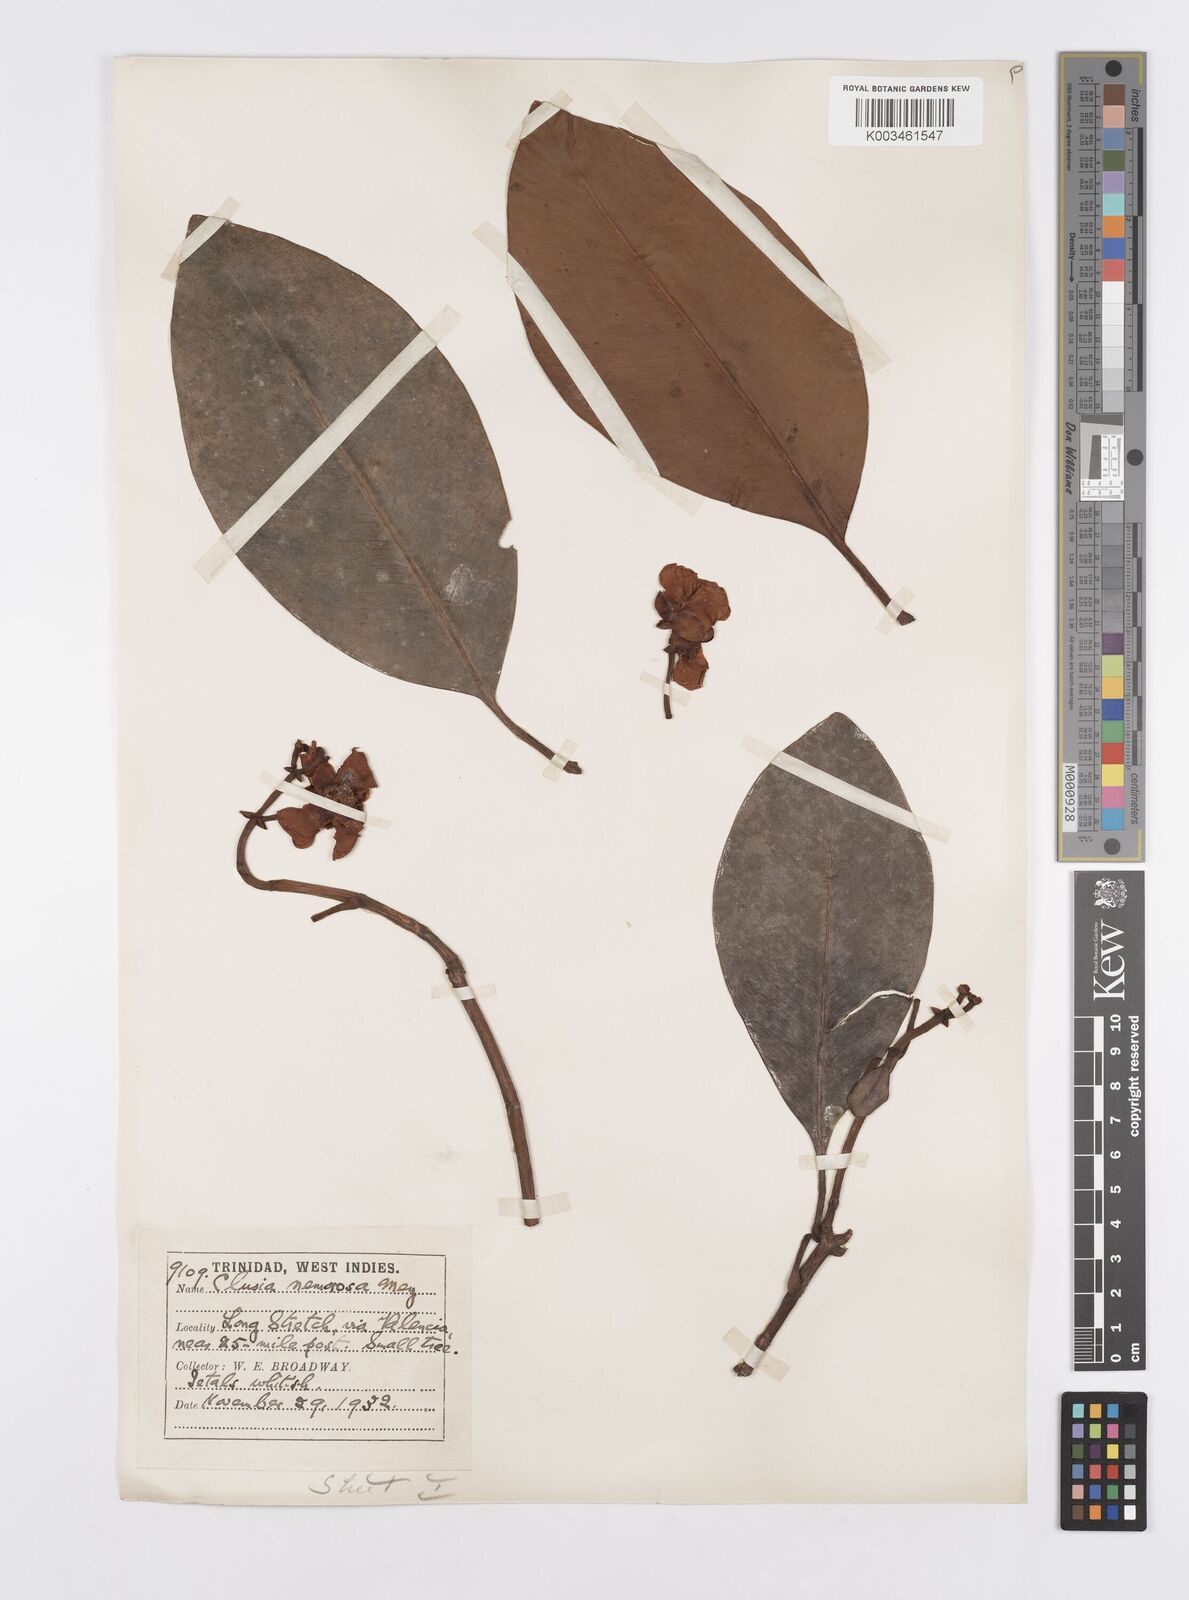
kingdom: Plantae
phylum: Tracheophyta
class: Magnoliopsida
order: Malpighiales
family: Clusiaceae
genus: Clusia
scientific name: Clusia nemorosa
